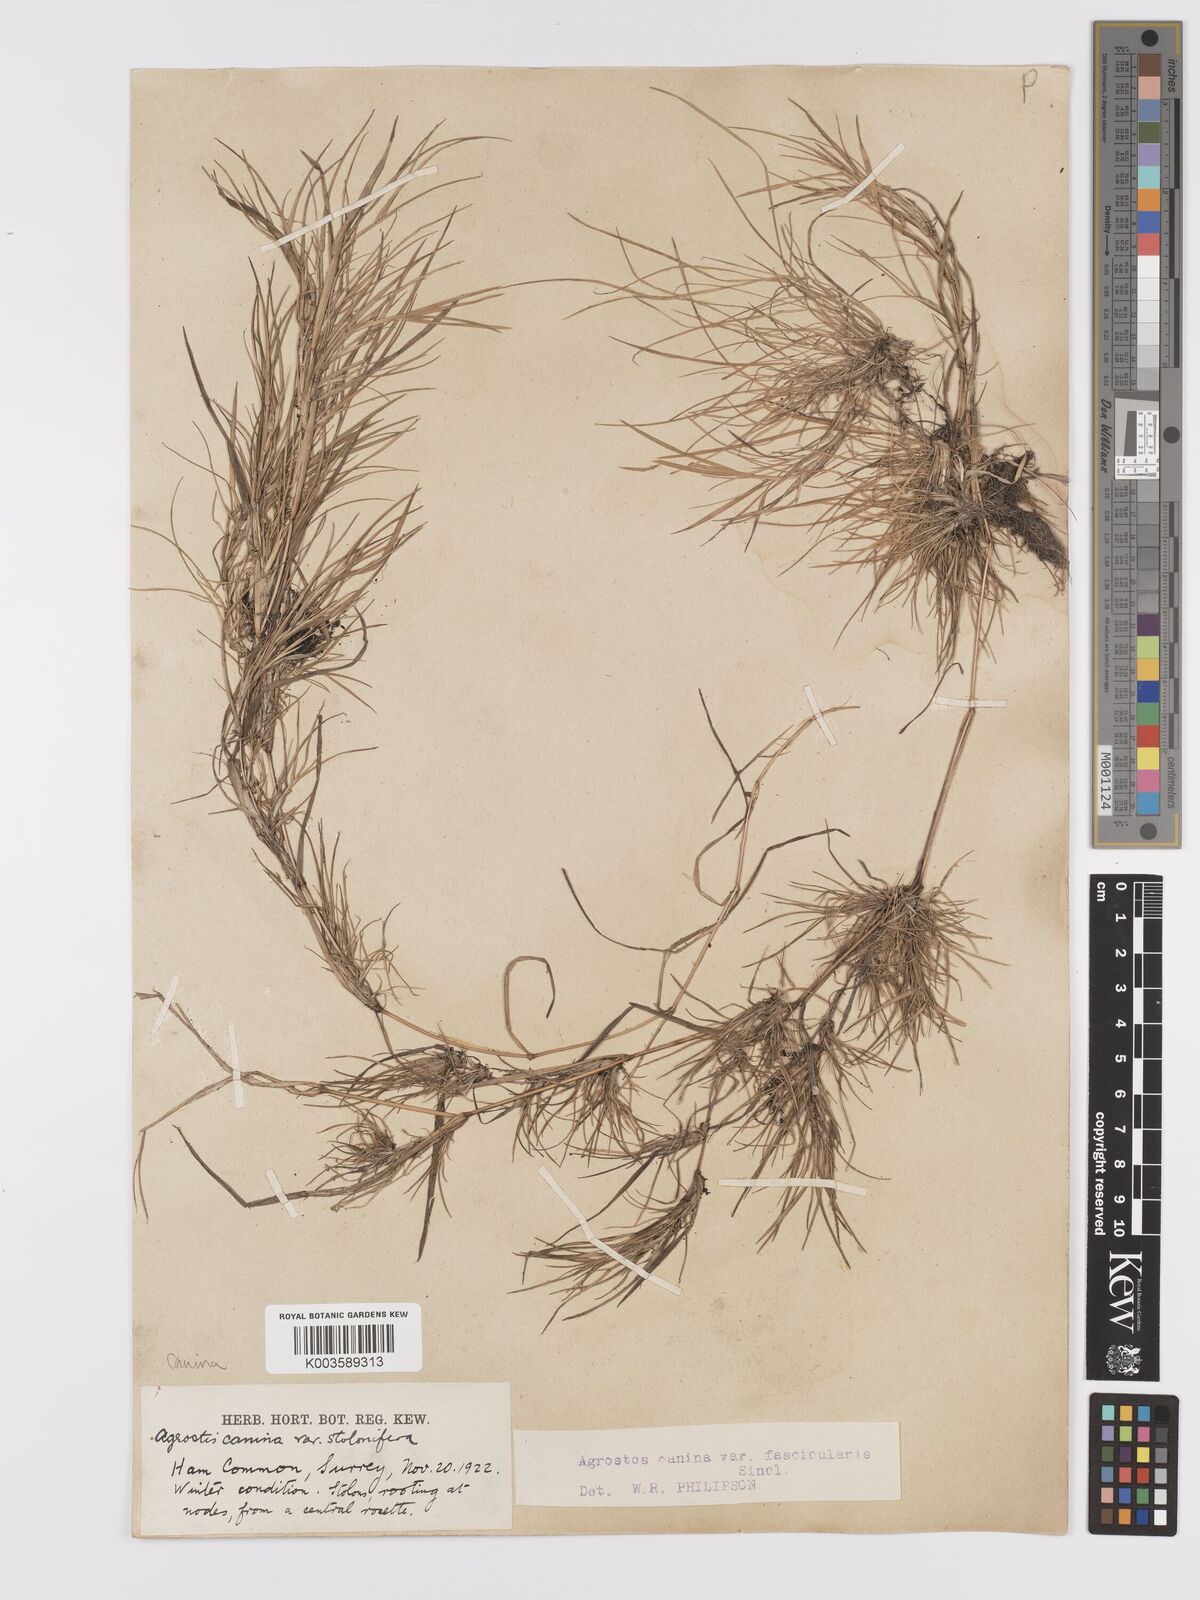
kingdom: Plantae
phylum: Tracheophyta
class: Liliopsida
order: Poales
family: Poaceae
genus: Agrostis
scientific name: Agrostis canina
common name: Velvet bent
